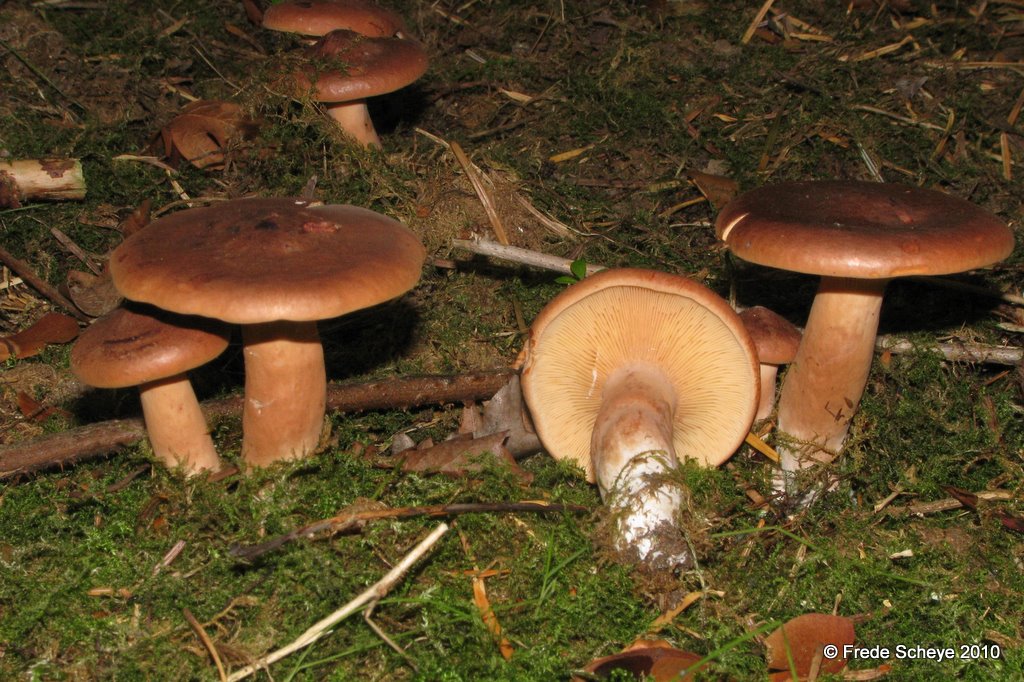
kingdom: Fungi
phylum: Basidiomycota
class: Agaricomycetes
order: Russulales
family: Russulaceae
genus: Lactarius
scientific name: Lactarius rufus
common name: rødbrun mælkehat
